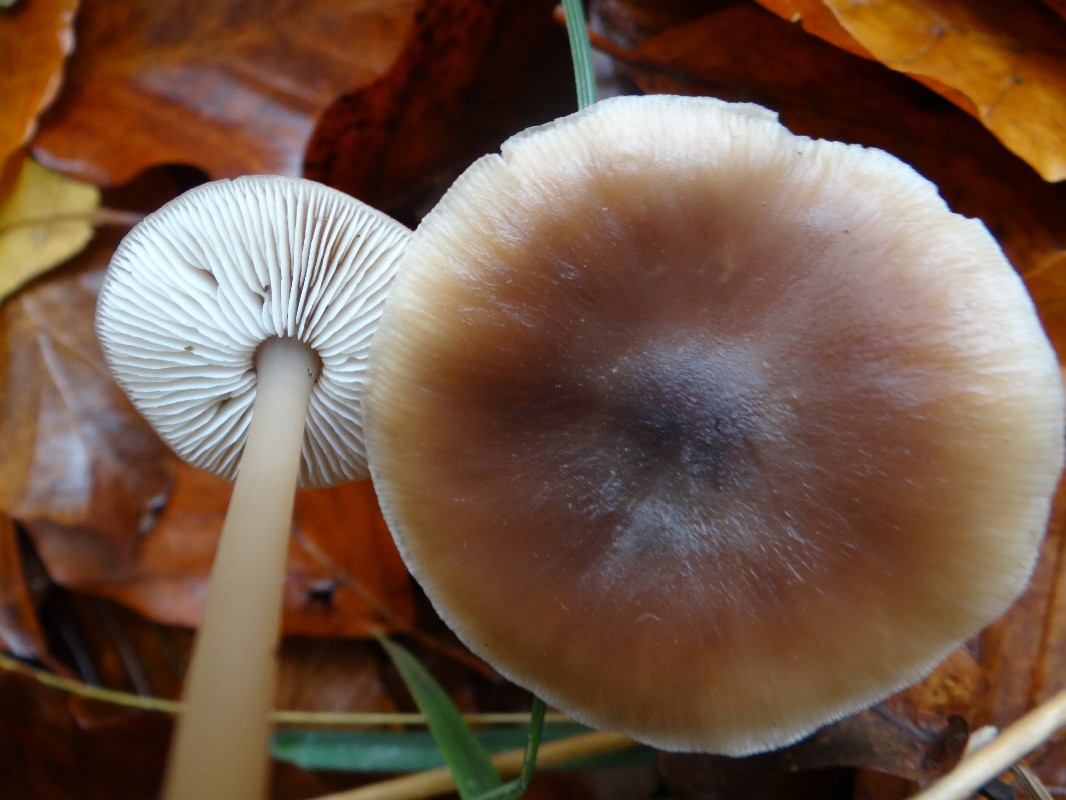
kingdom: Fungi
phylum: Basidiomycota
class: Agaricomycetes
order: Agaricales
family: Omphalotaceae
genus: Rhodocollybia
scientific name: Rhodocollybia asema
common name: horngrå fladhat
